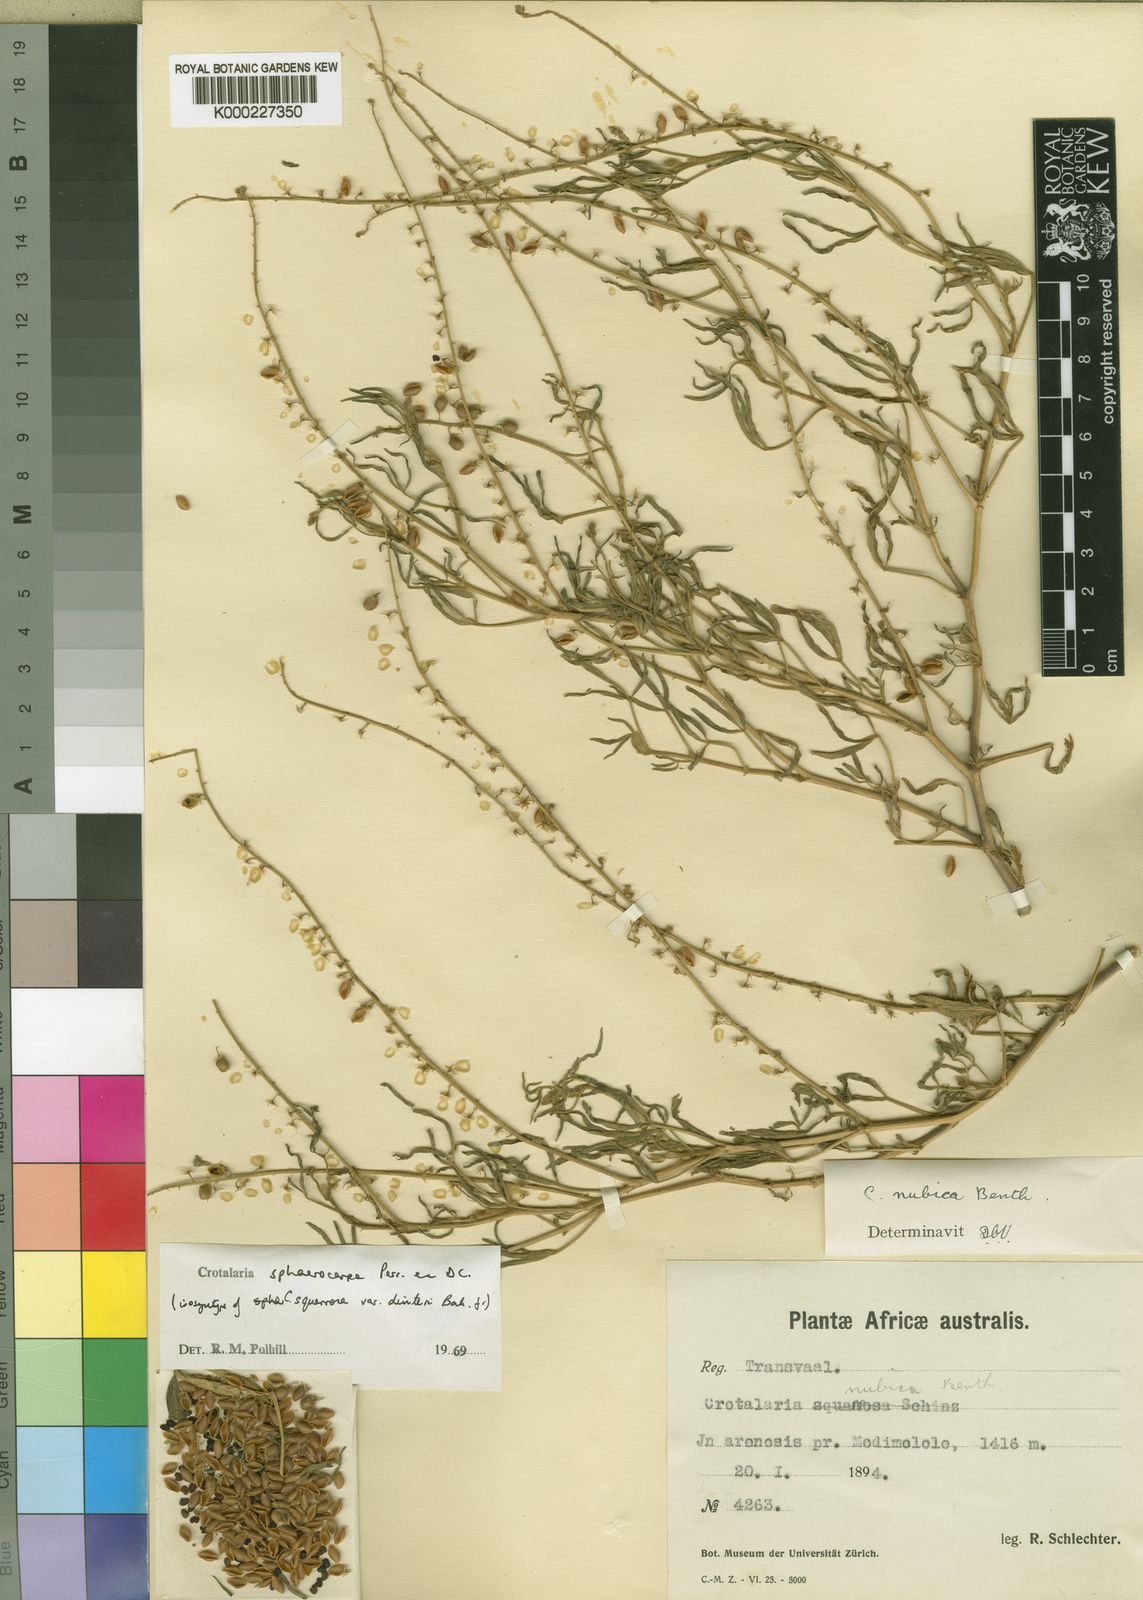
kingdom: Plantae
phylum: Tracheophyta
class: Magnoliopsida
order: Fabales
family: Fabaceae
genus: Crotalaria
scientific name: Crotalaria sphaerocarpa
